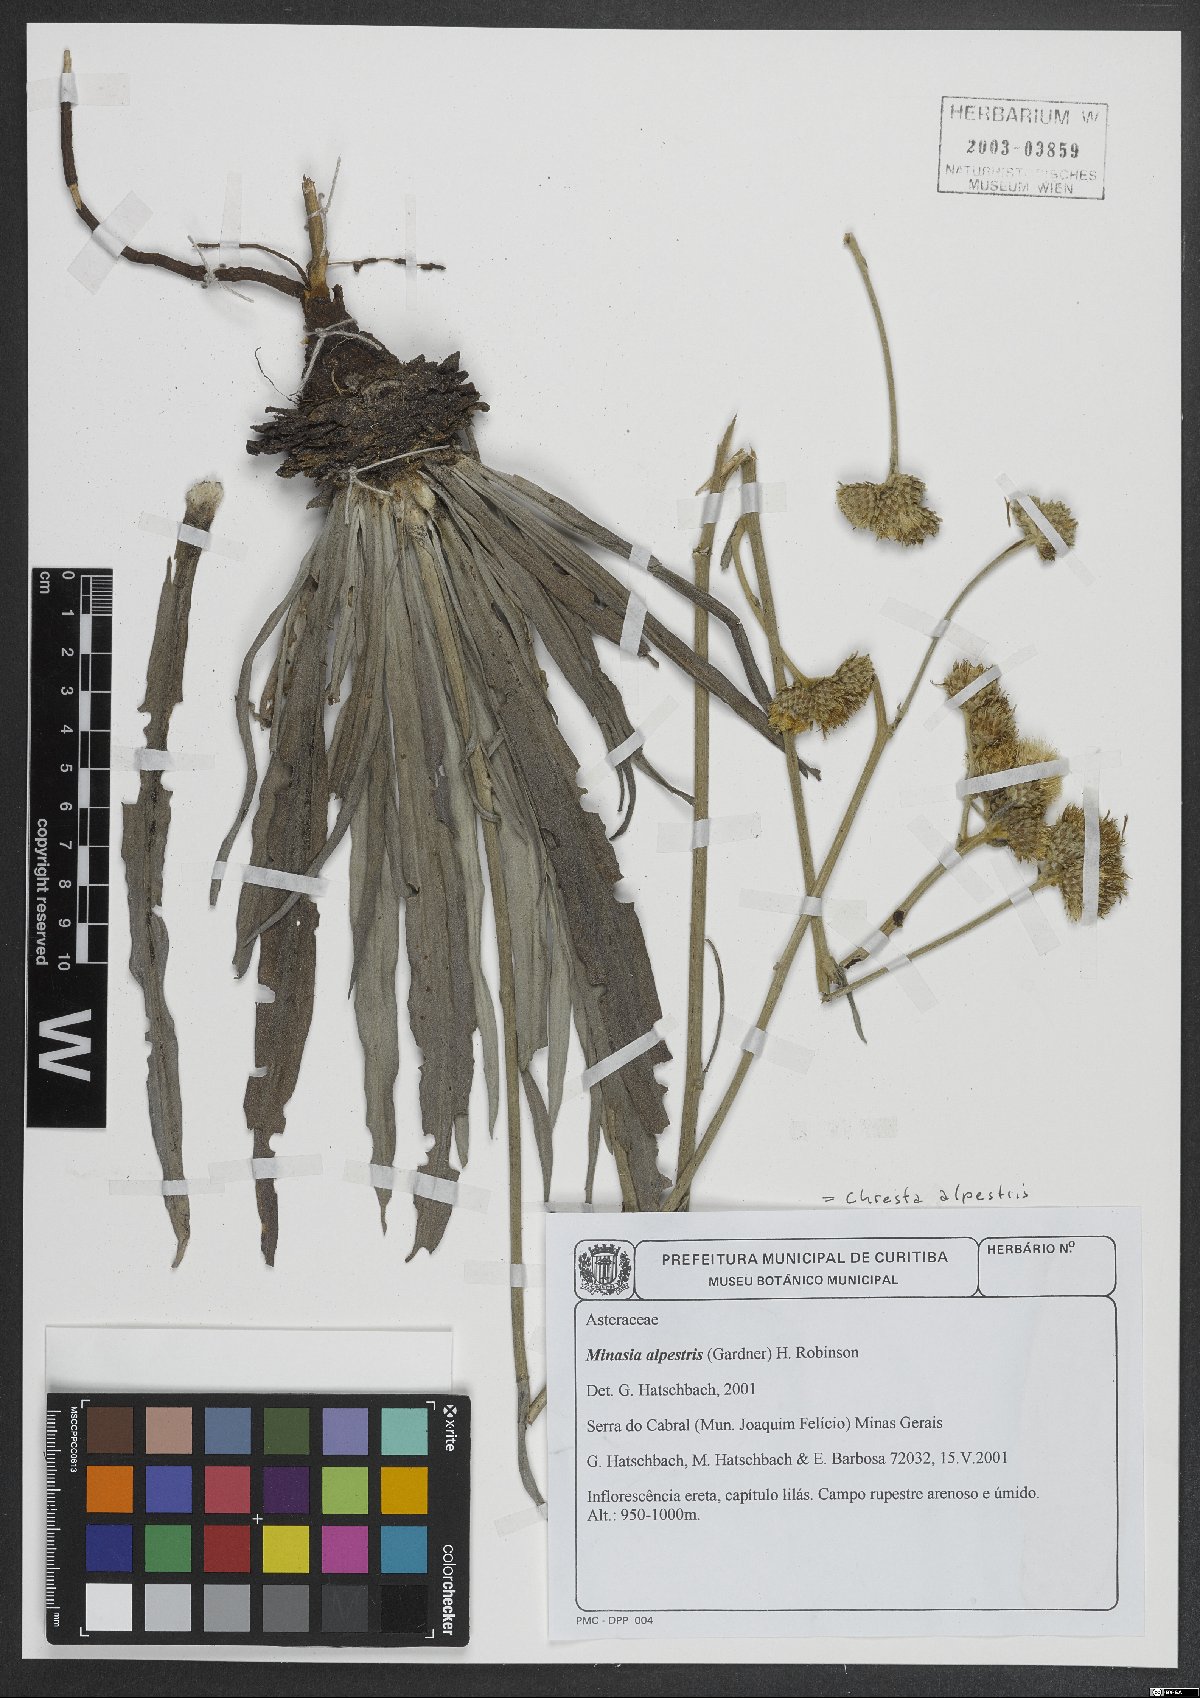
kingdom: Plantae
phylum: Tracheophyta
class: Magnoliopsida
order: Asterales
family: Asteraceae
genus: Minasia
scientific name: Minasia alpestris
